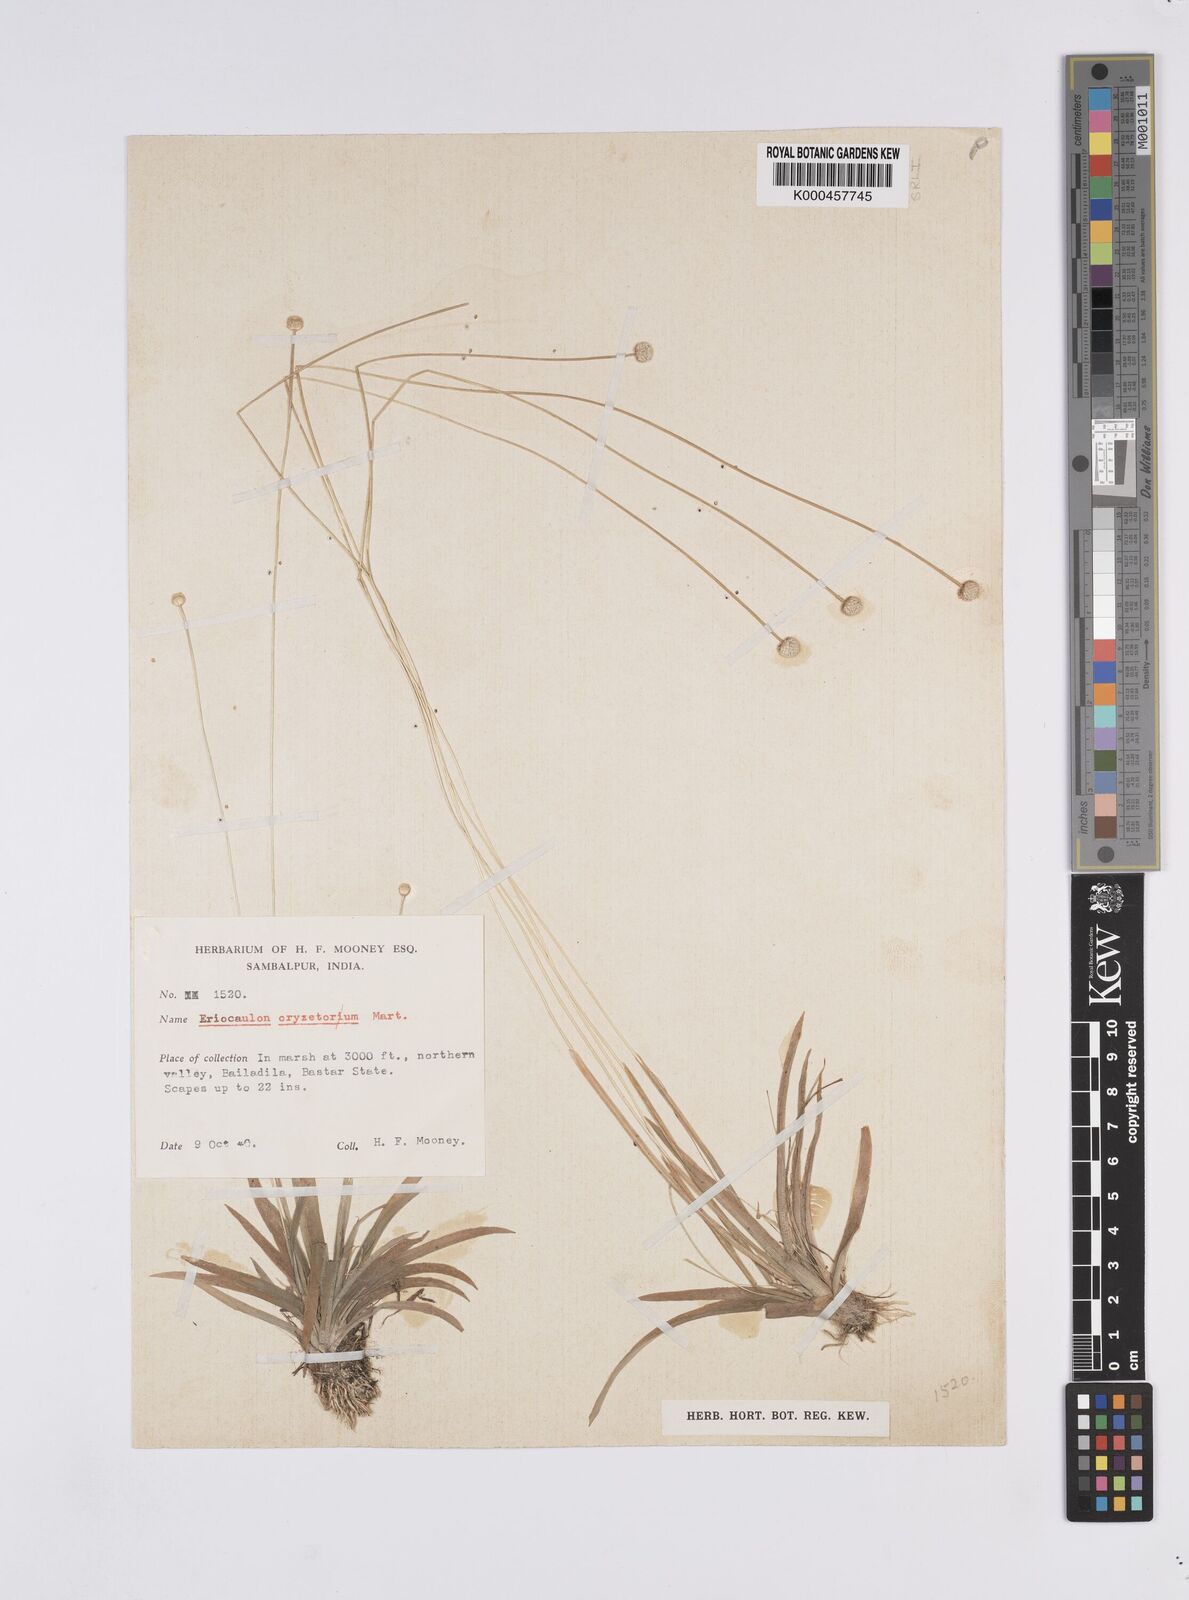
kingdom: Plantae
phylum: Tracheophyta
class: Liliopsida
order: Poales
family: Eriocaulaceae
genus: Eriocaulon
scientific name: Eriocaulon oryzetorum
